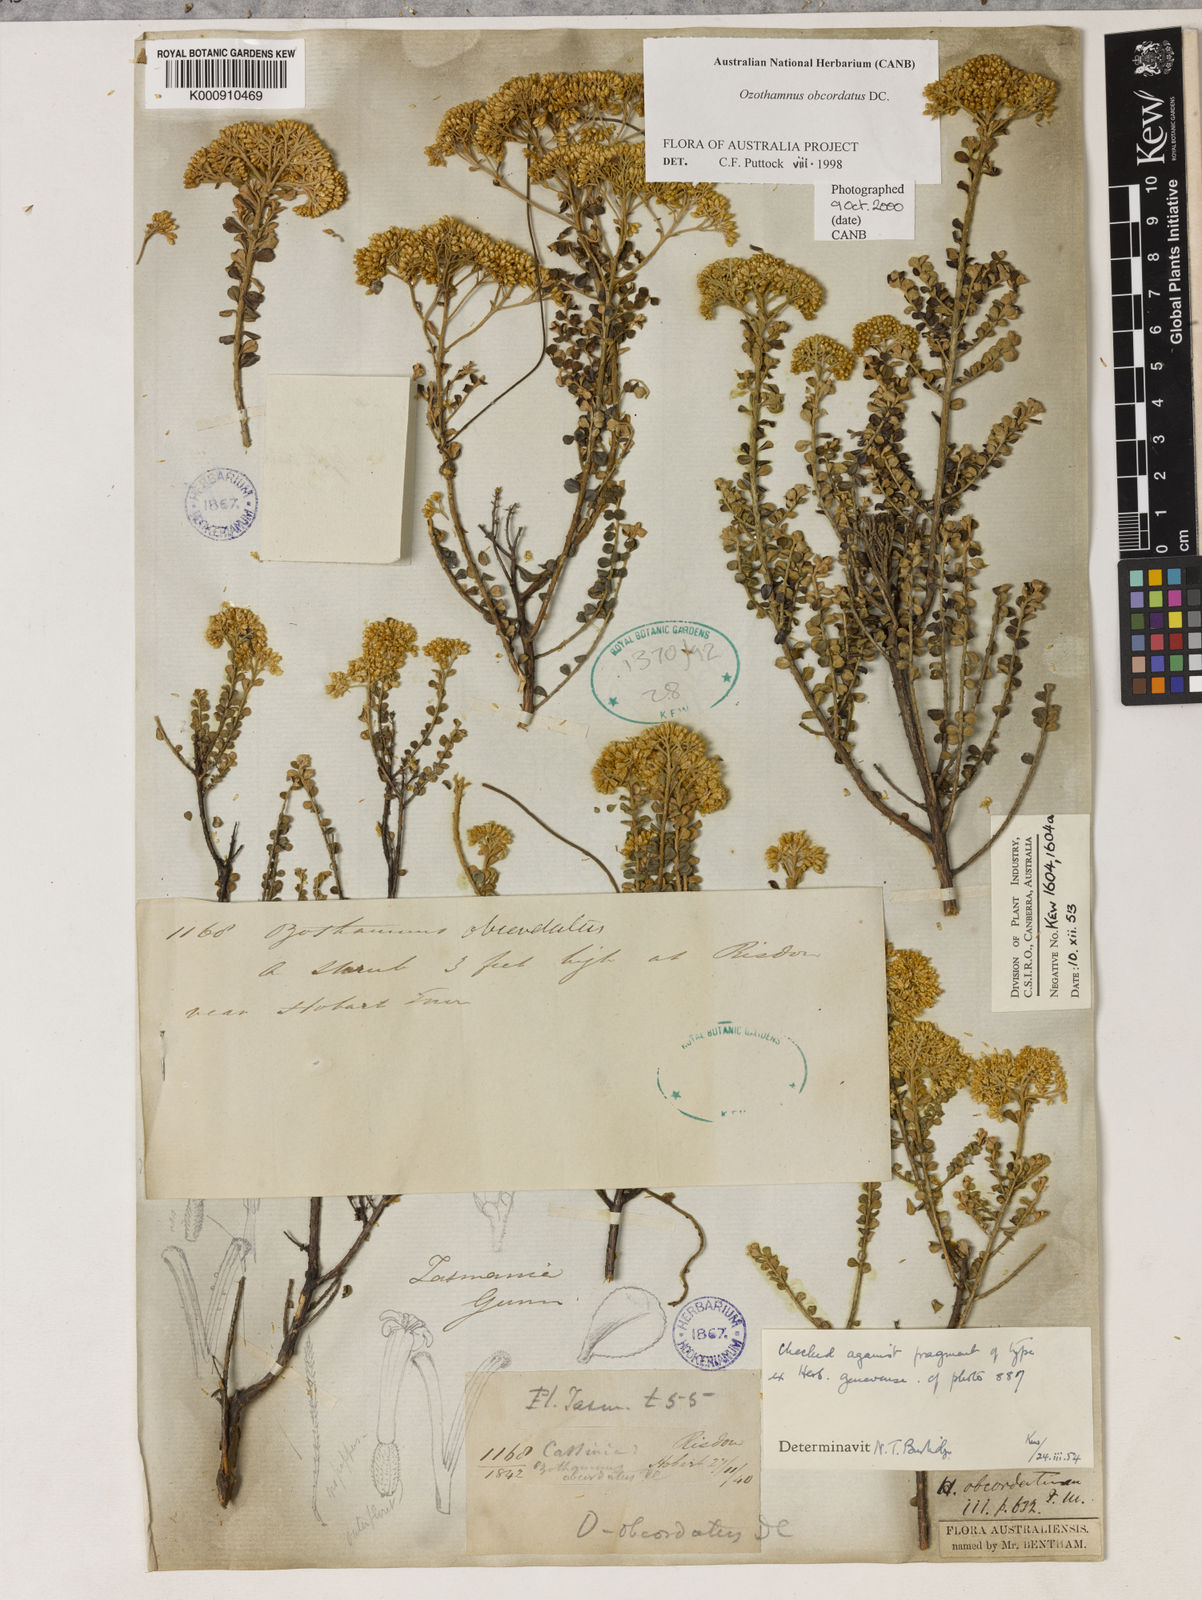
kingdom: Plantae
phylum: Tracheophyta
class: Magnoliopsida
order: Asterales
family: Asteraceae
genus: Ozothamnus
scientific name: Ozothamnus obcordatus
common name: Grey everlasting
